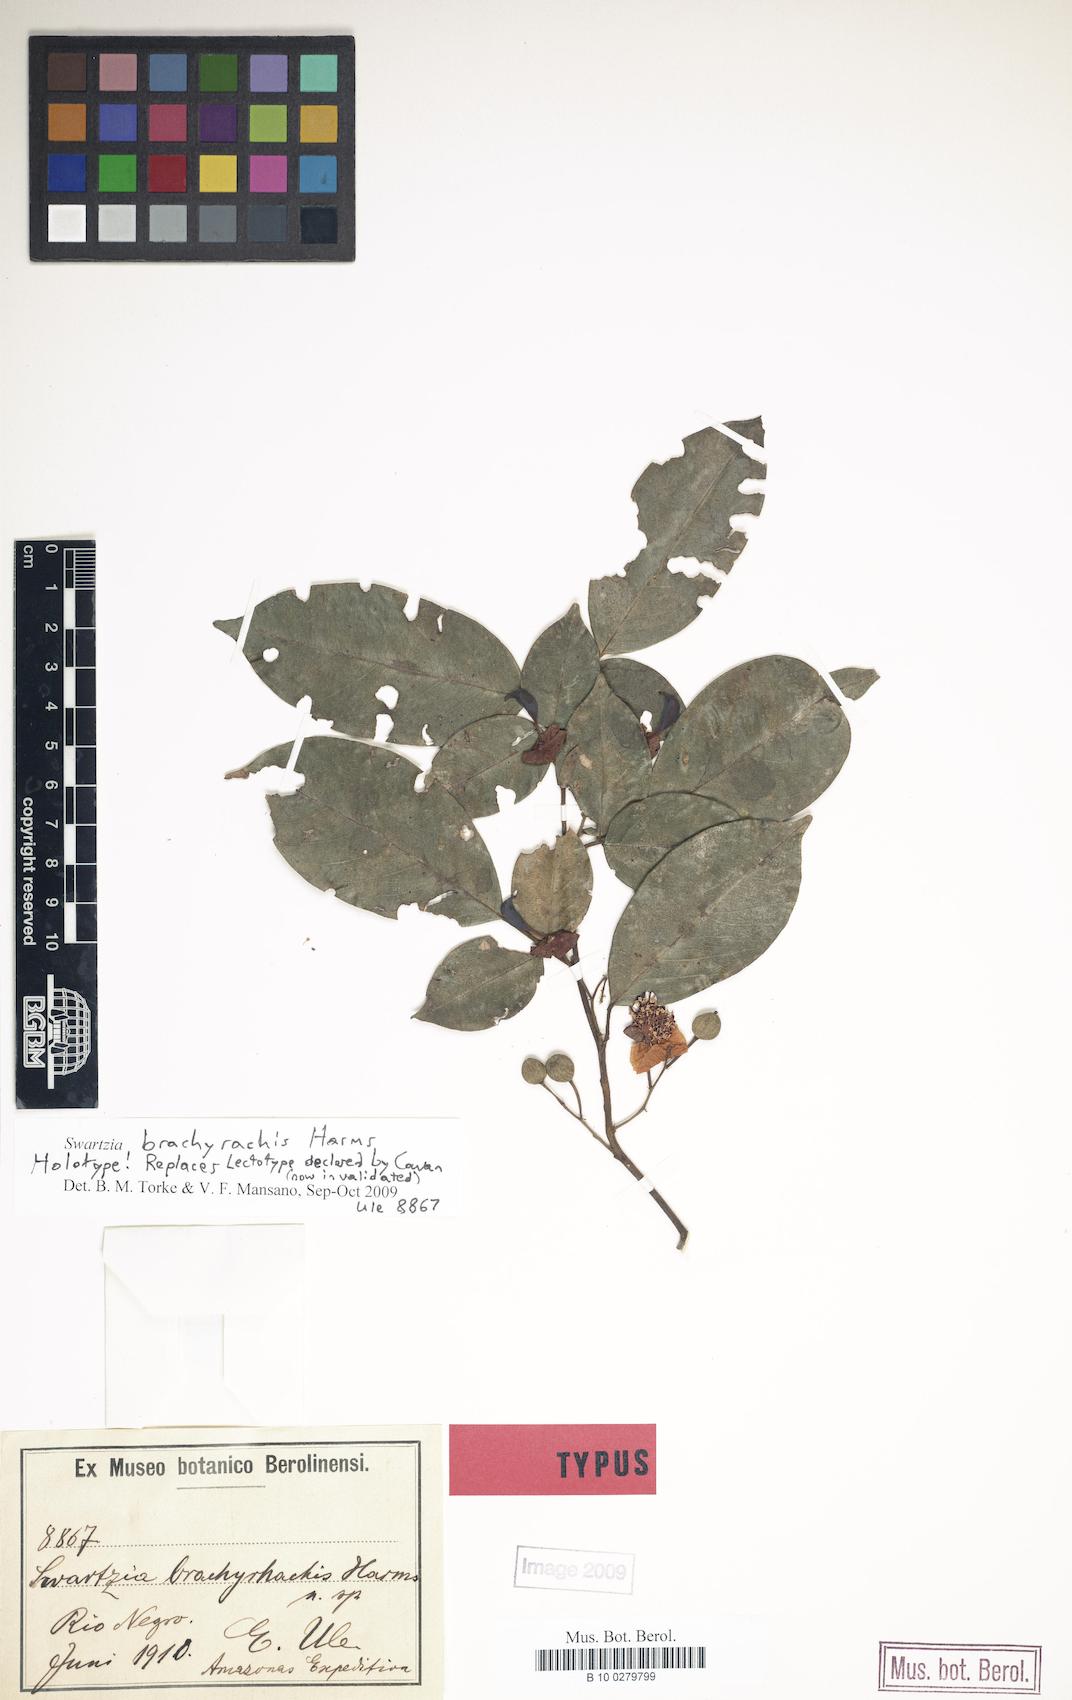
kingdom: Plantae
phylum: Tracheophyta
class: Magnoliopsida
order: Fabales
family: Fabaceae
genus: Swartzia
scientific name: Swartzia brachyrhachis
